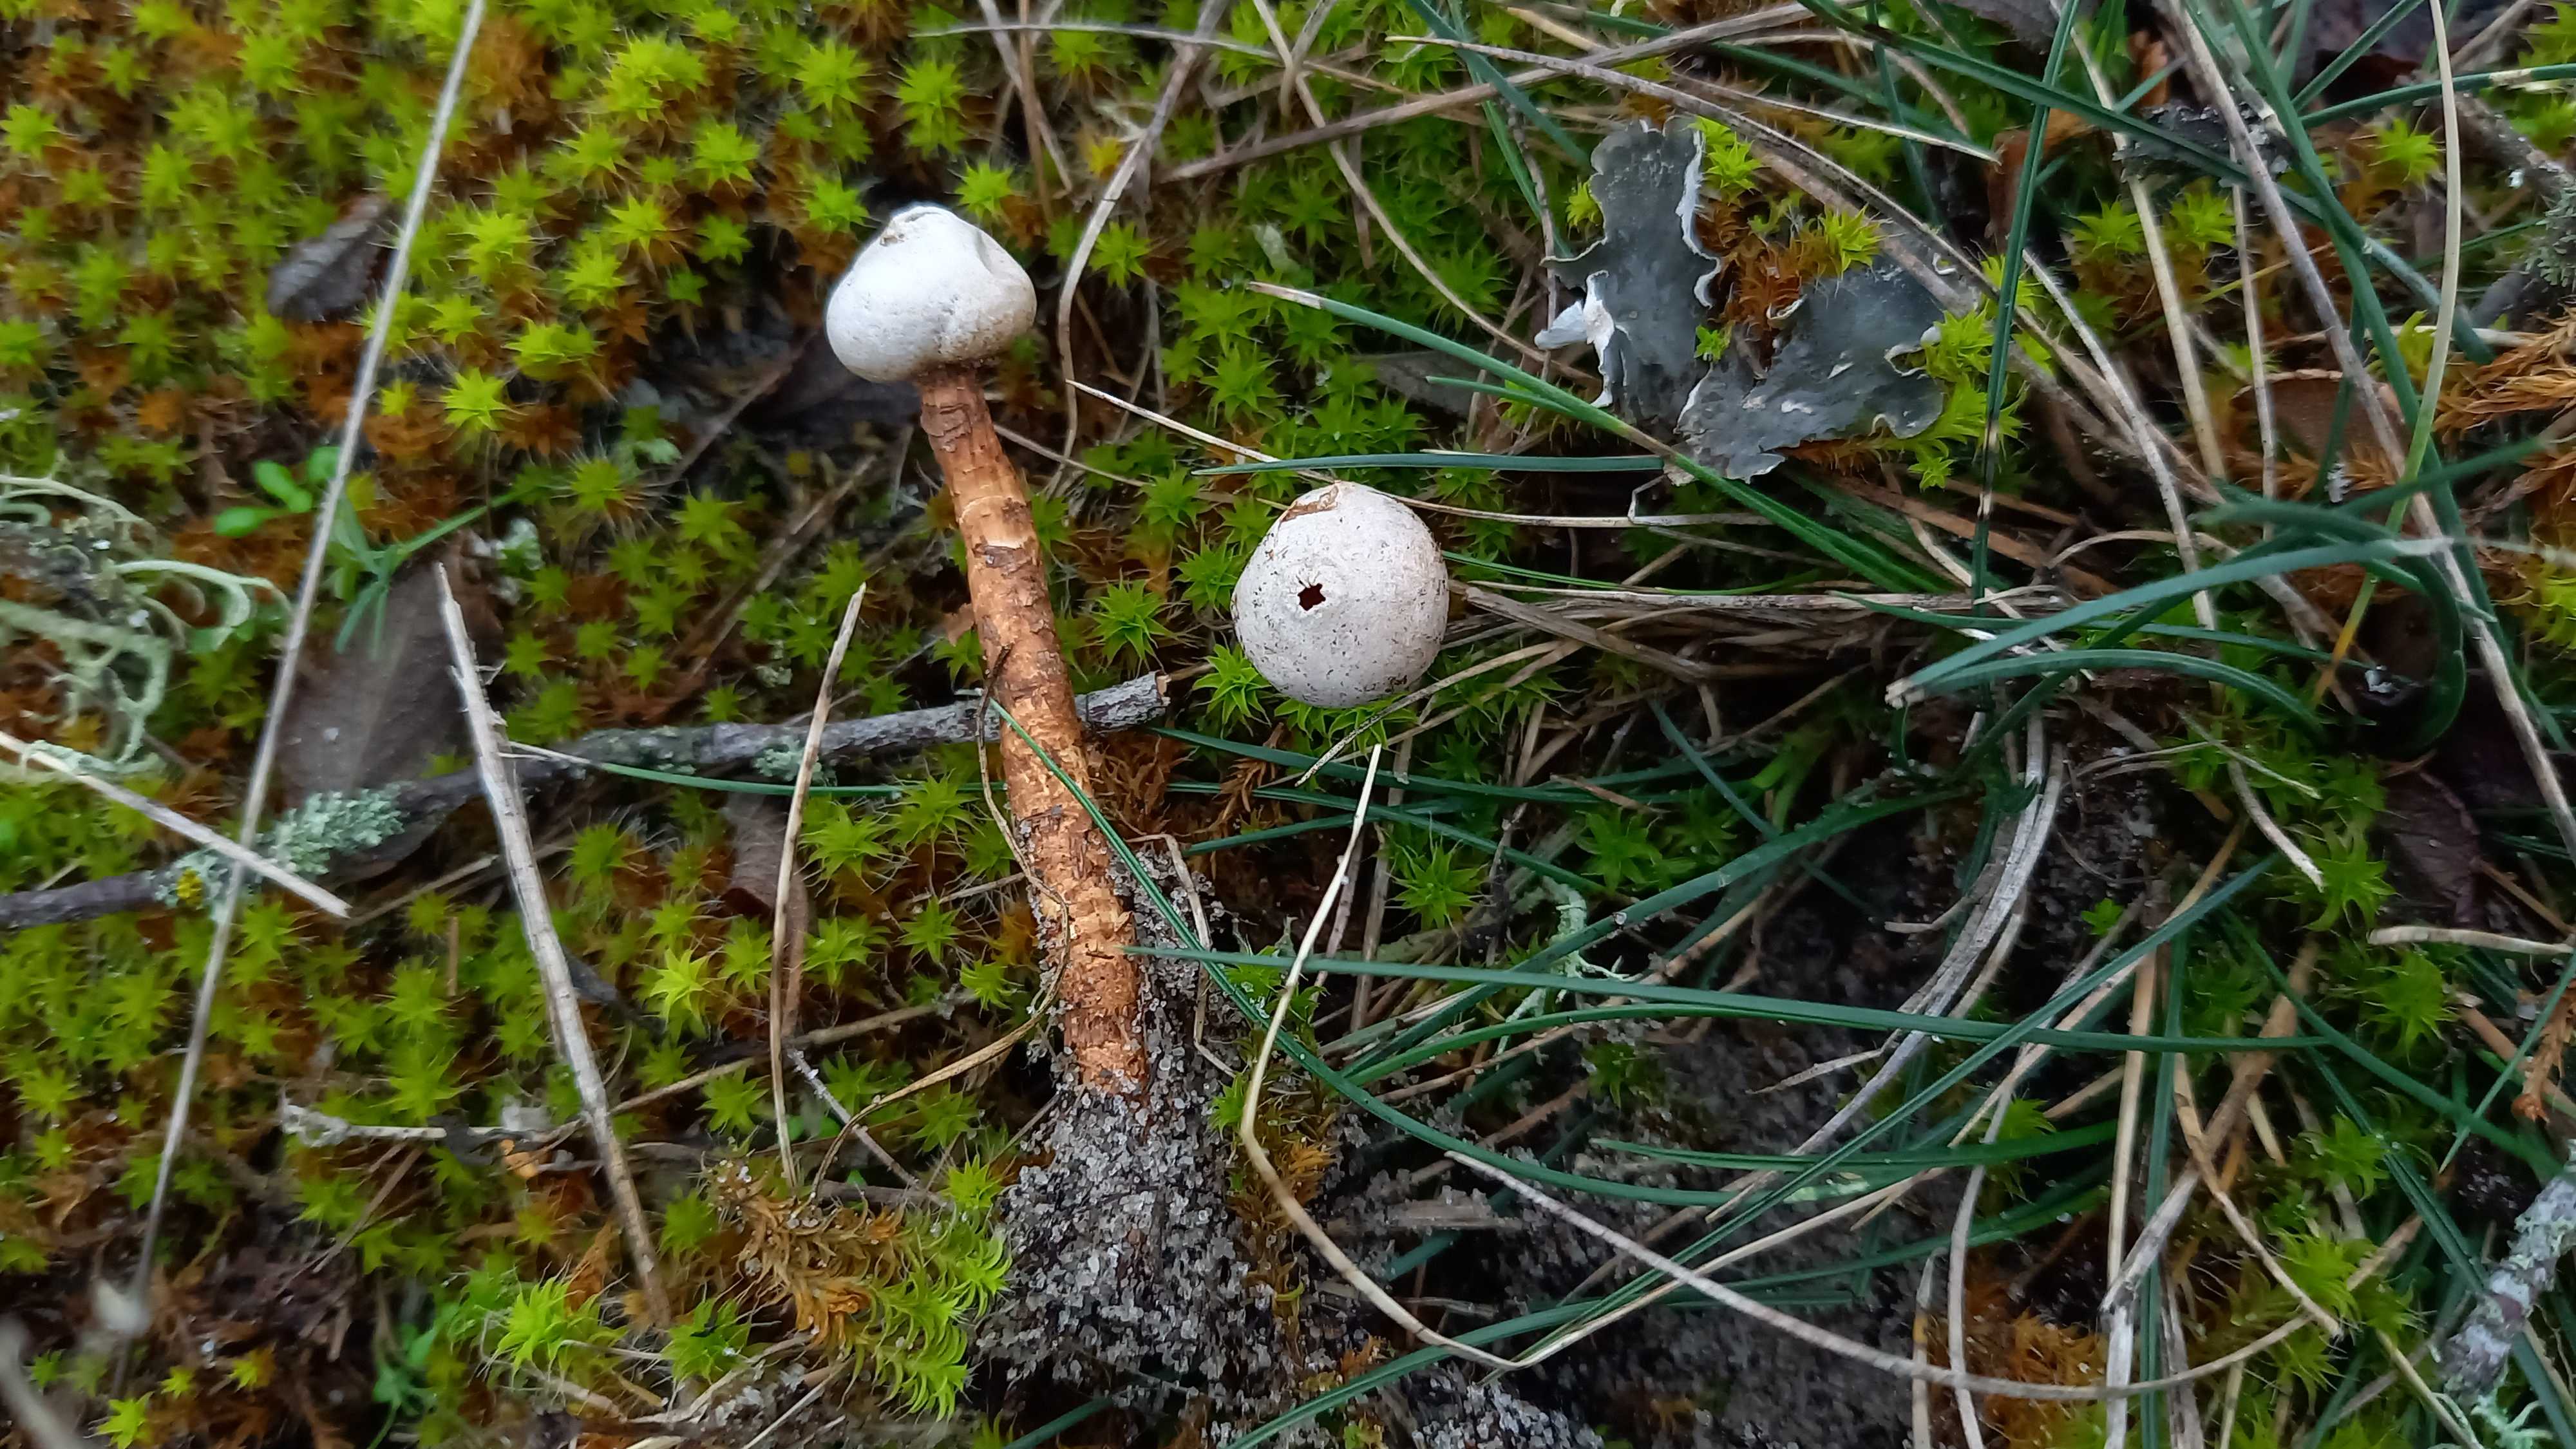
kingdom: Fungi
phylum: Basidiomycota
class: Agaricomycetes
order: Agaricales
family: Agaricaceae
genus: Tulostoma
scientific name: Tulostoma winterhoffii
